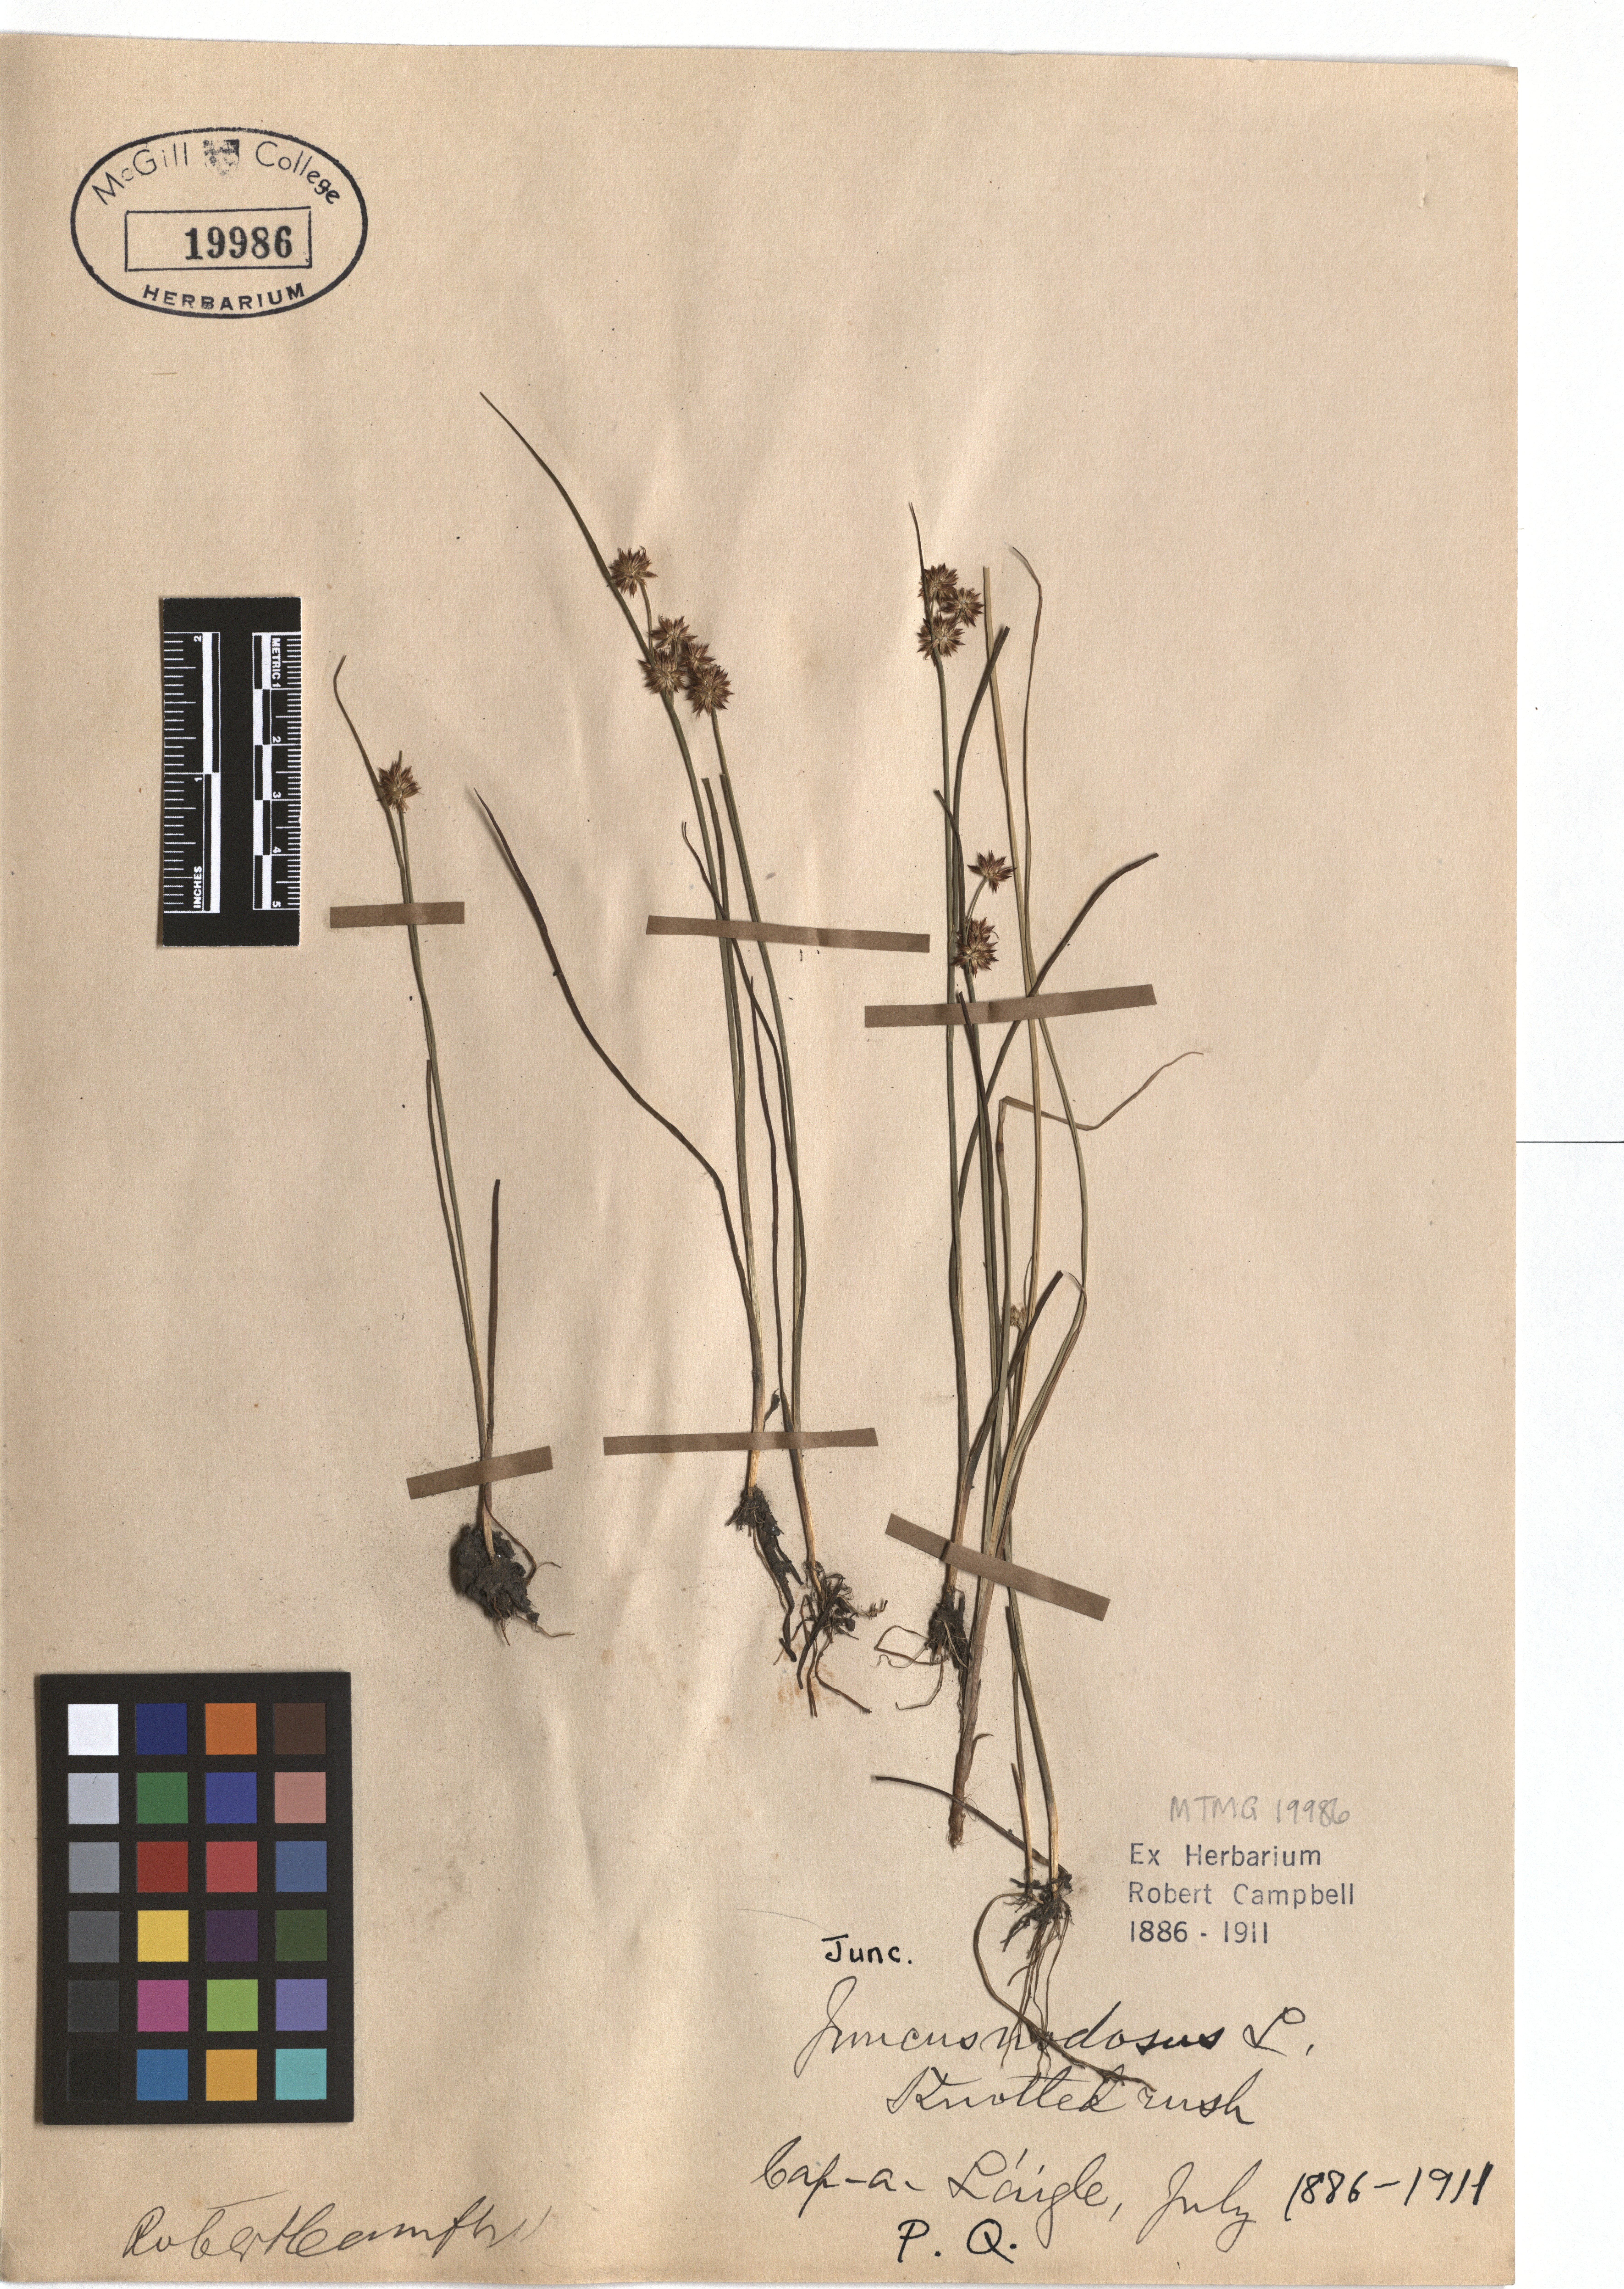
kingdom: Plantae
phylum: Tracheophyta
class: Liliopsida
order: Poales
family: Juncaceae
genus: Juncus
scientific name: Juncus nodosus
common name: Knotted rush
